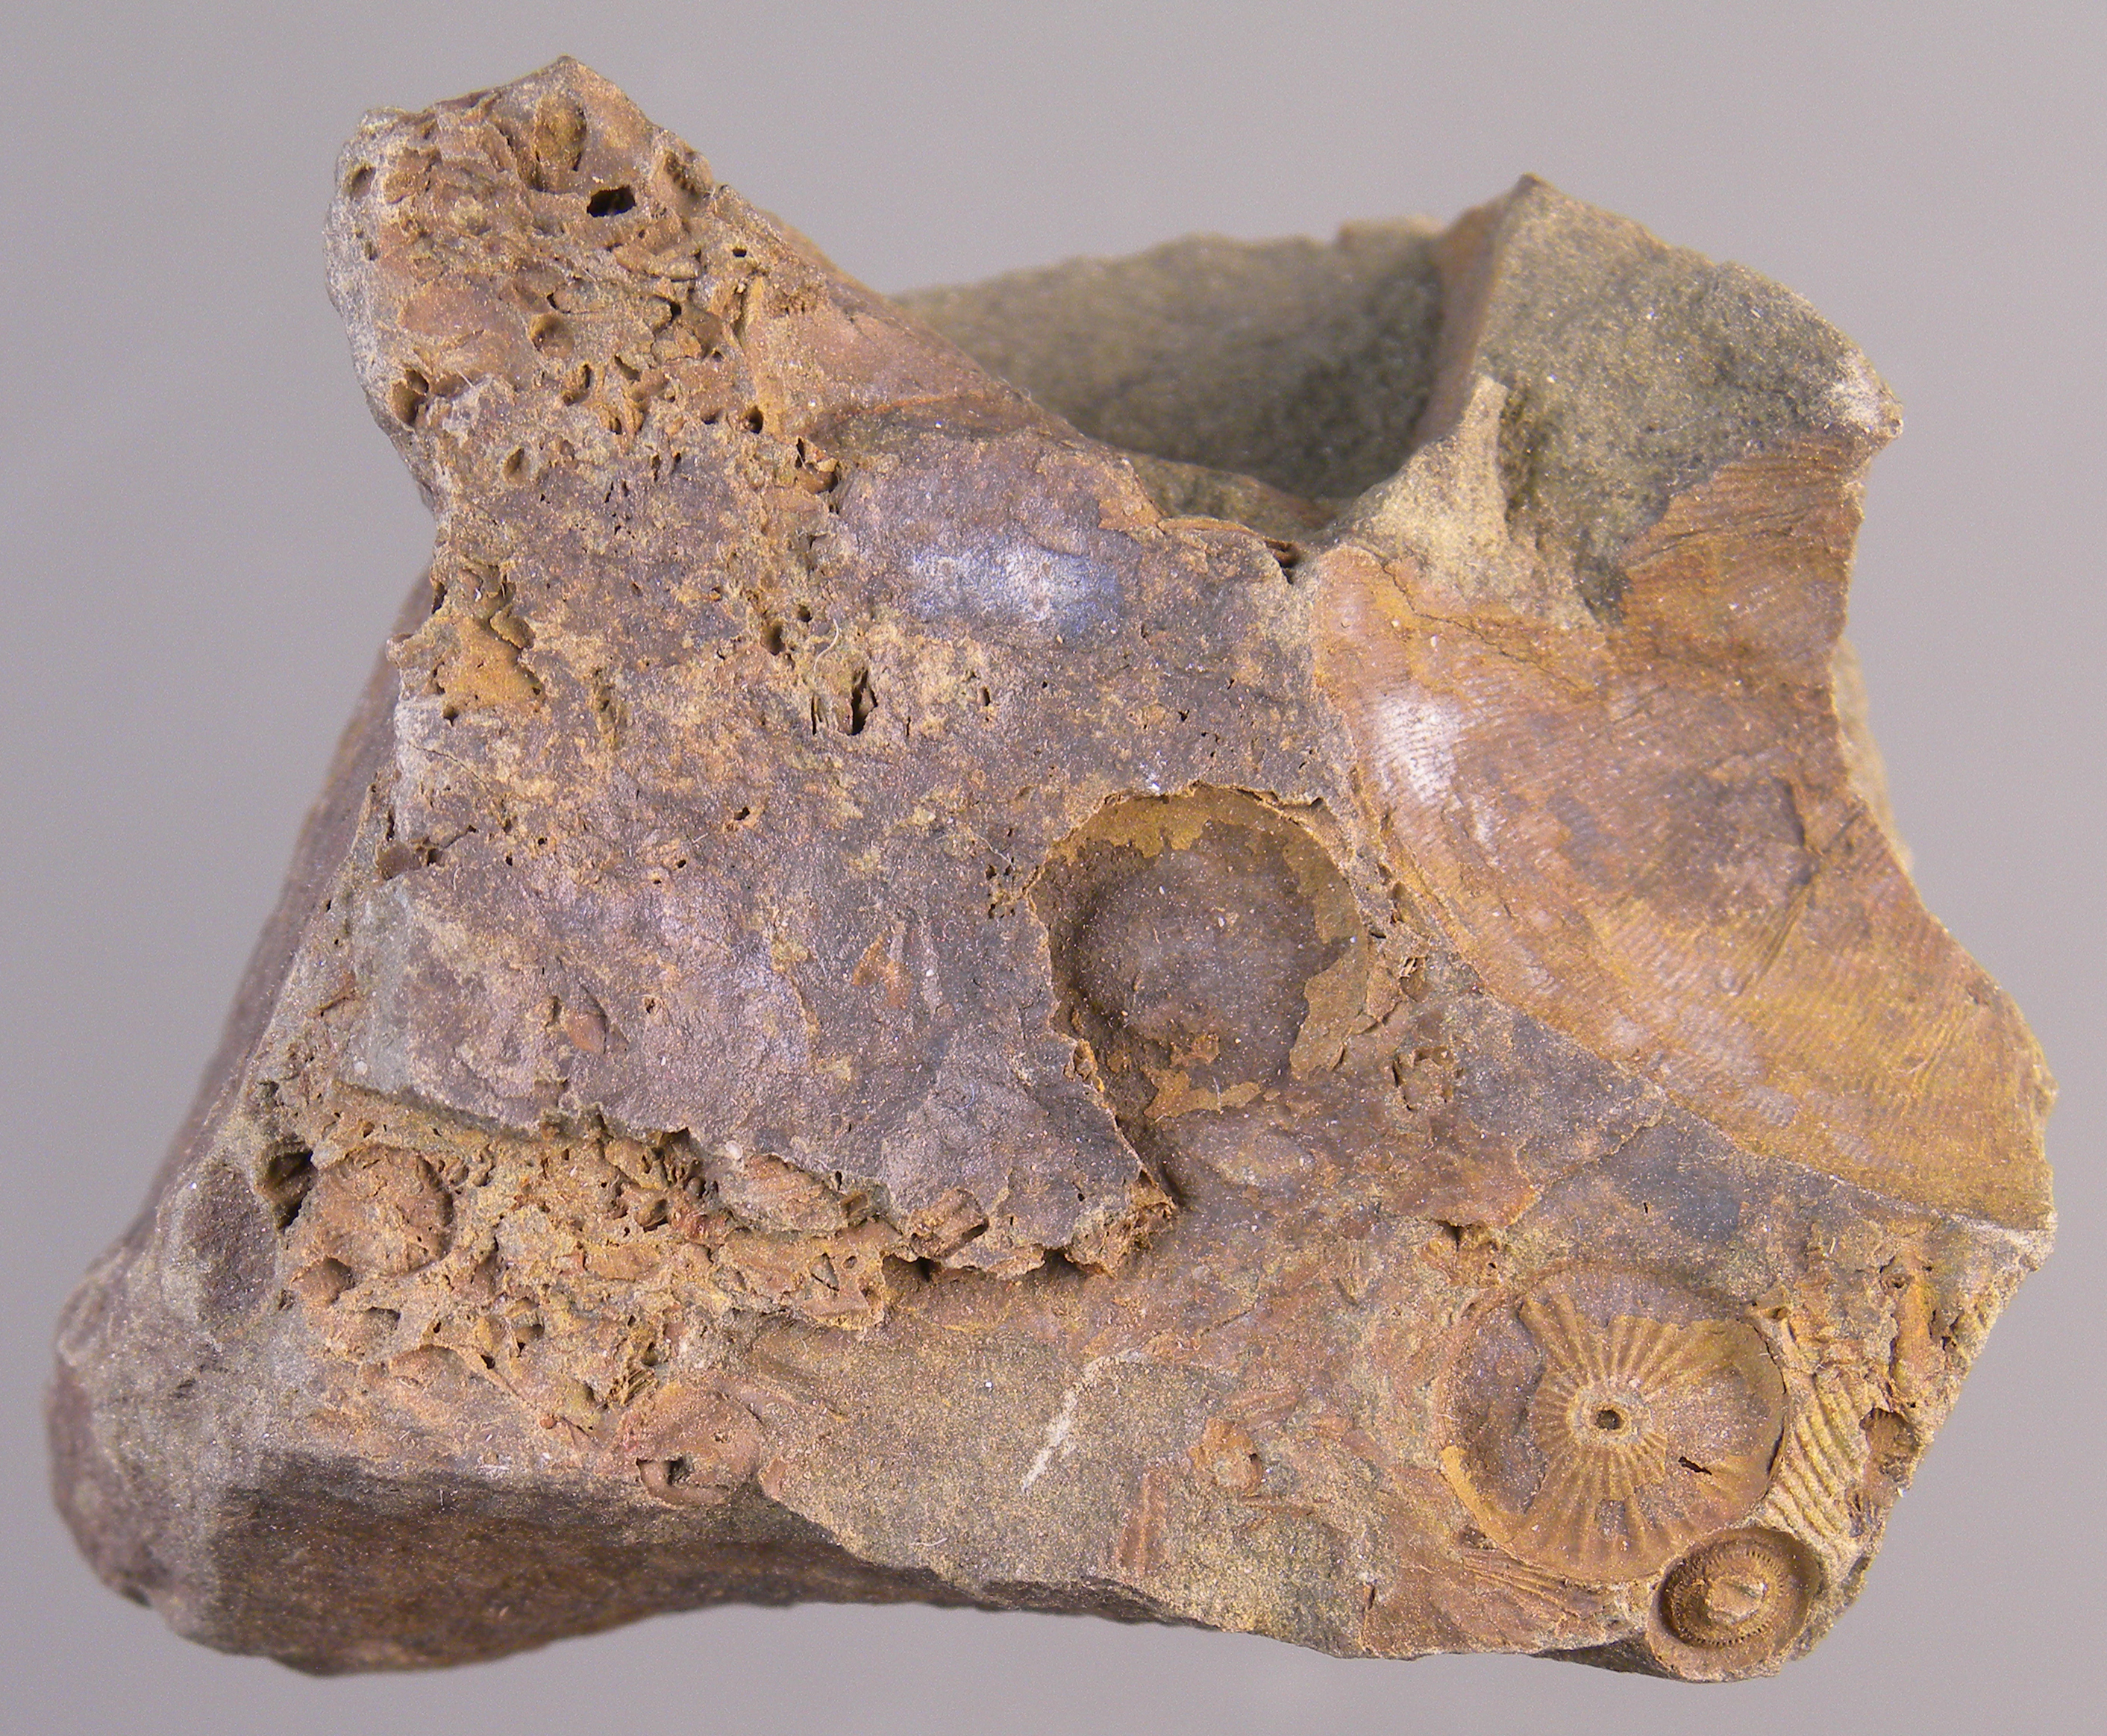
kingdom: Animalia
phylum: Echinodermata
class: Crinoidea
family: Flucticharacidae
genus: Laudonomphalus
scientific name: Laudonomphalus
